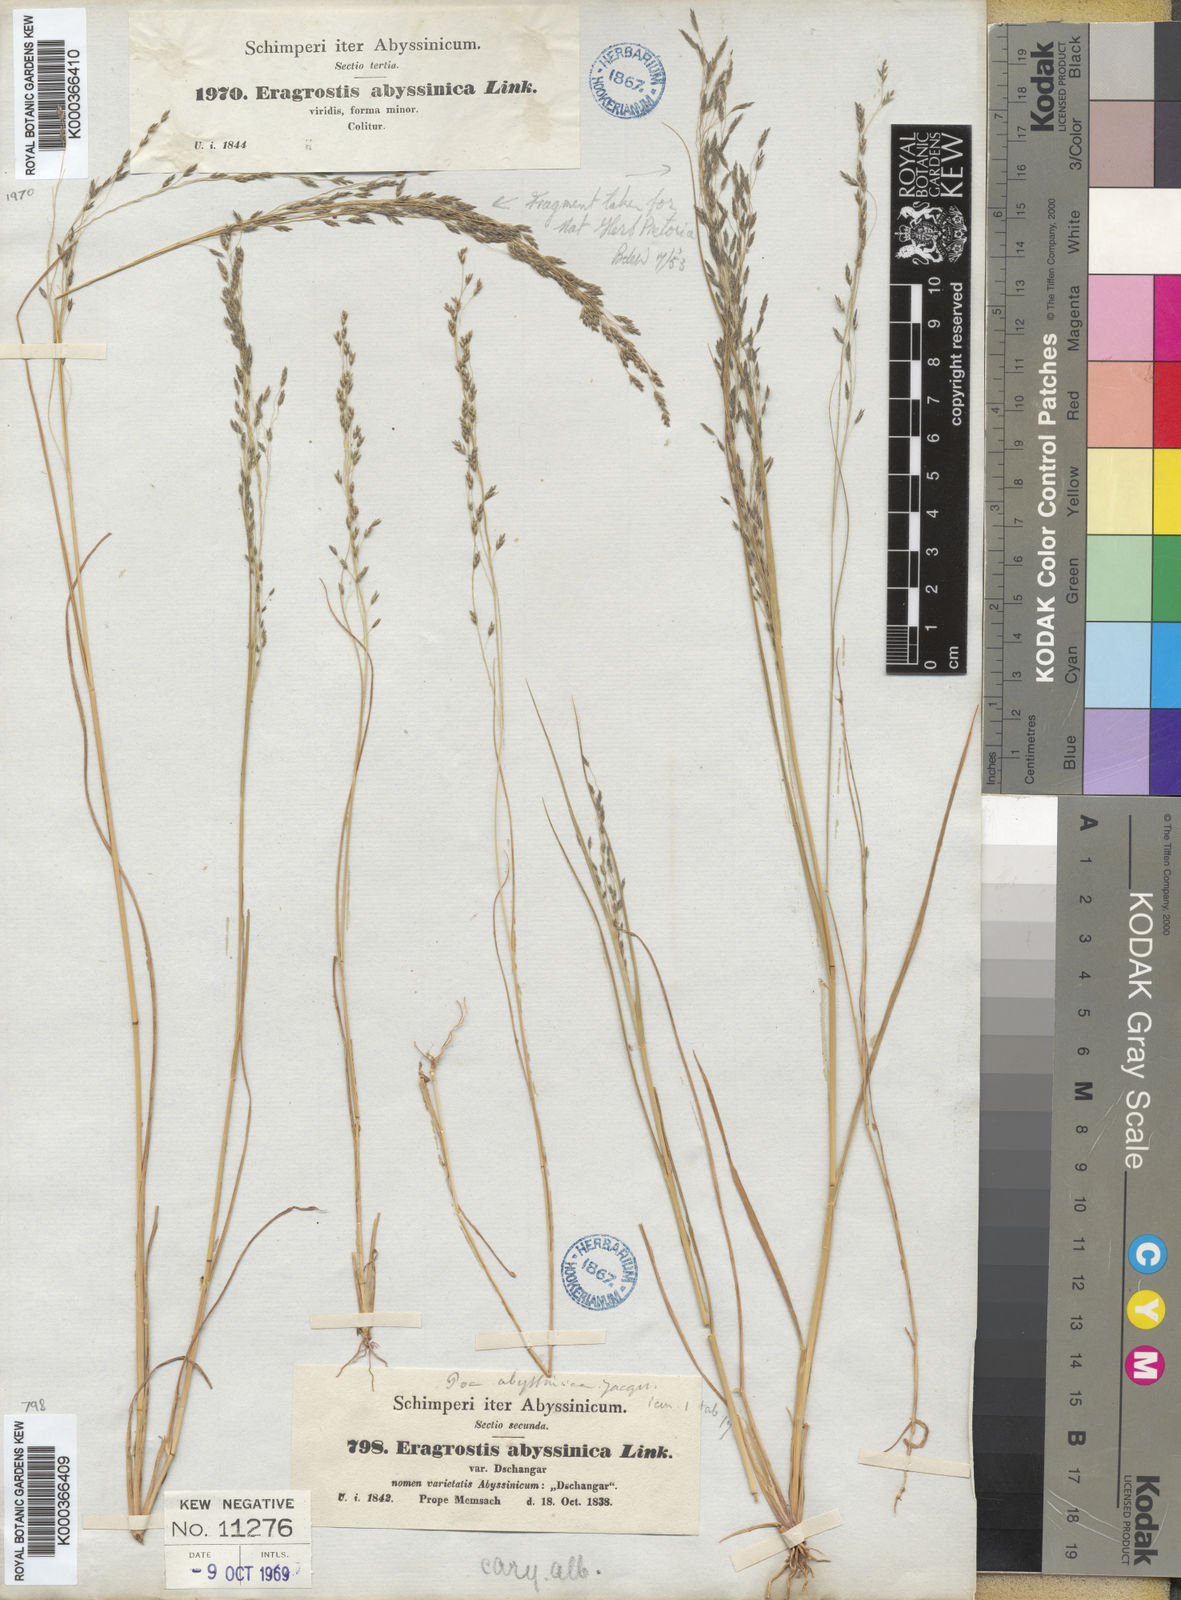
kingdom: Plantae
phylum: Tracheophyta
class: Liliopsida
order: Poales
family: Poaceae
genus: Eragrostis
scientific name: Eragrostis tef
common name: Teff
